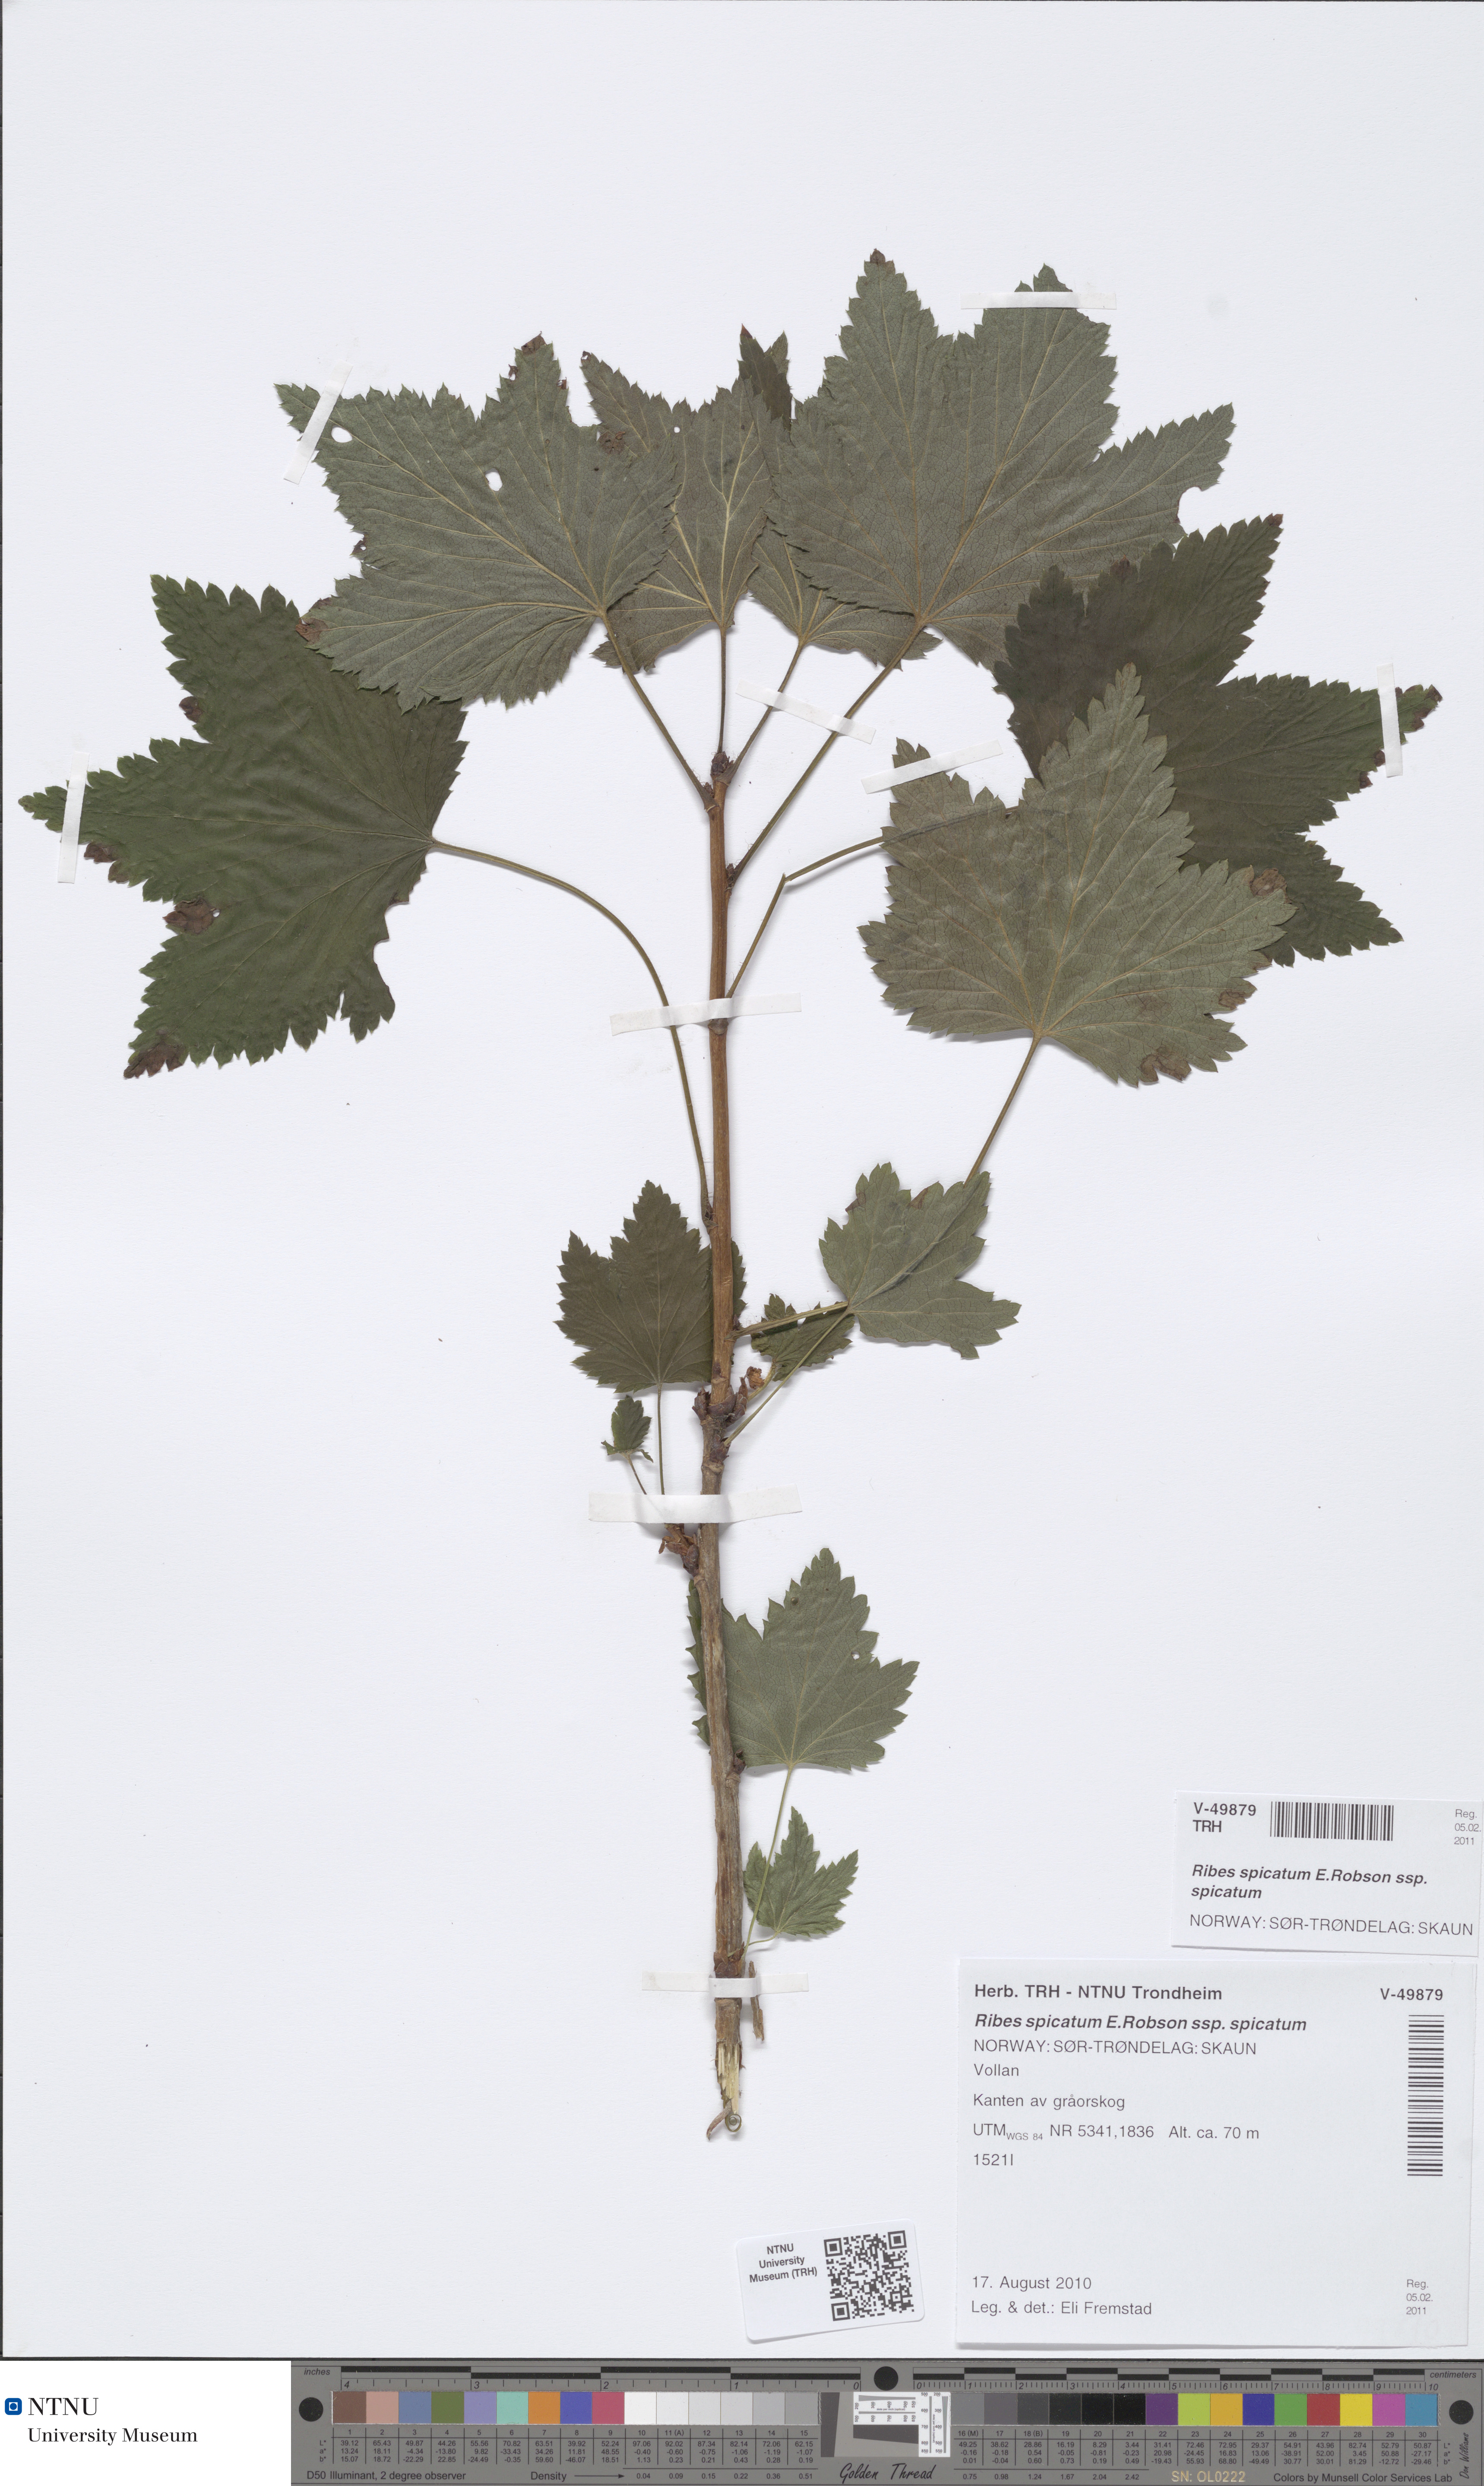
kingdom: Plantae
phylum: Tracheophyta
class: Magnoliopsida
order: Saxifragales
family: Grossulariaceae
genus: Ribes
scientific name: Ribes spicatum
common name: Downy currant
